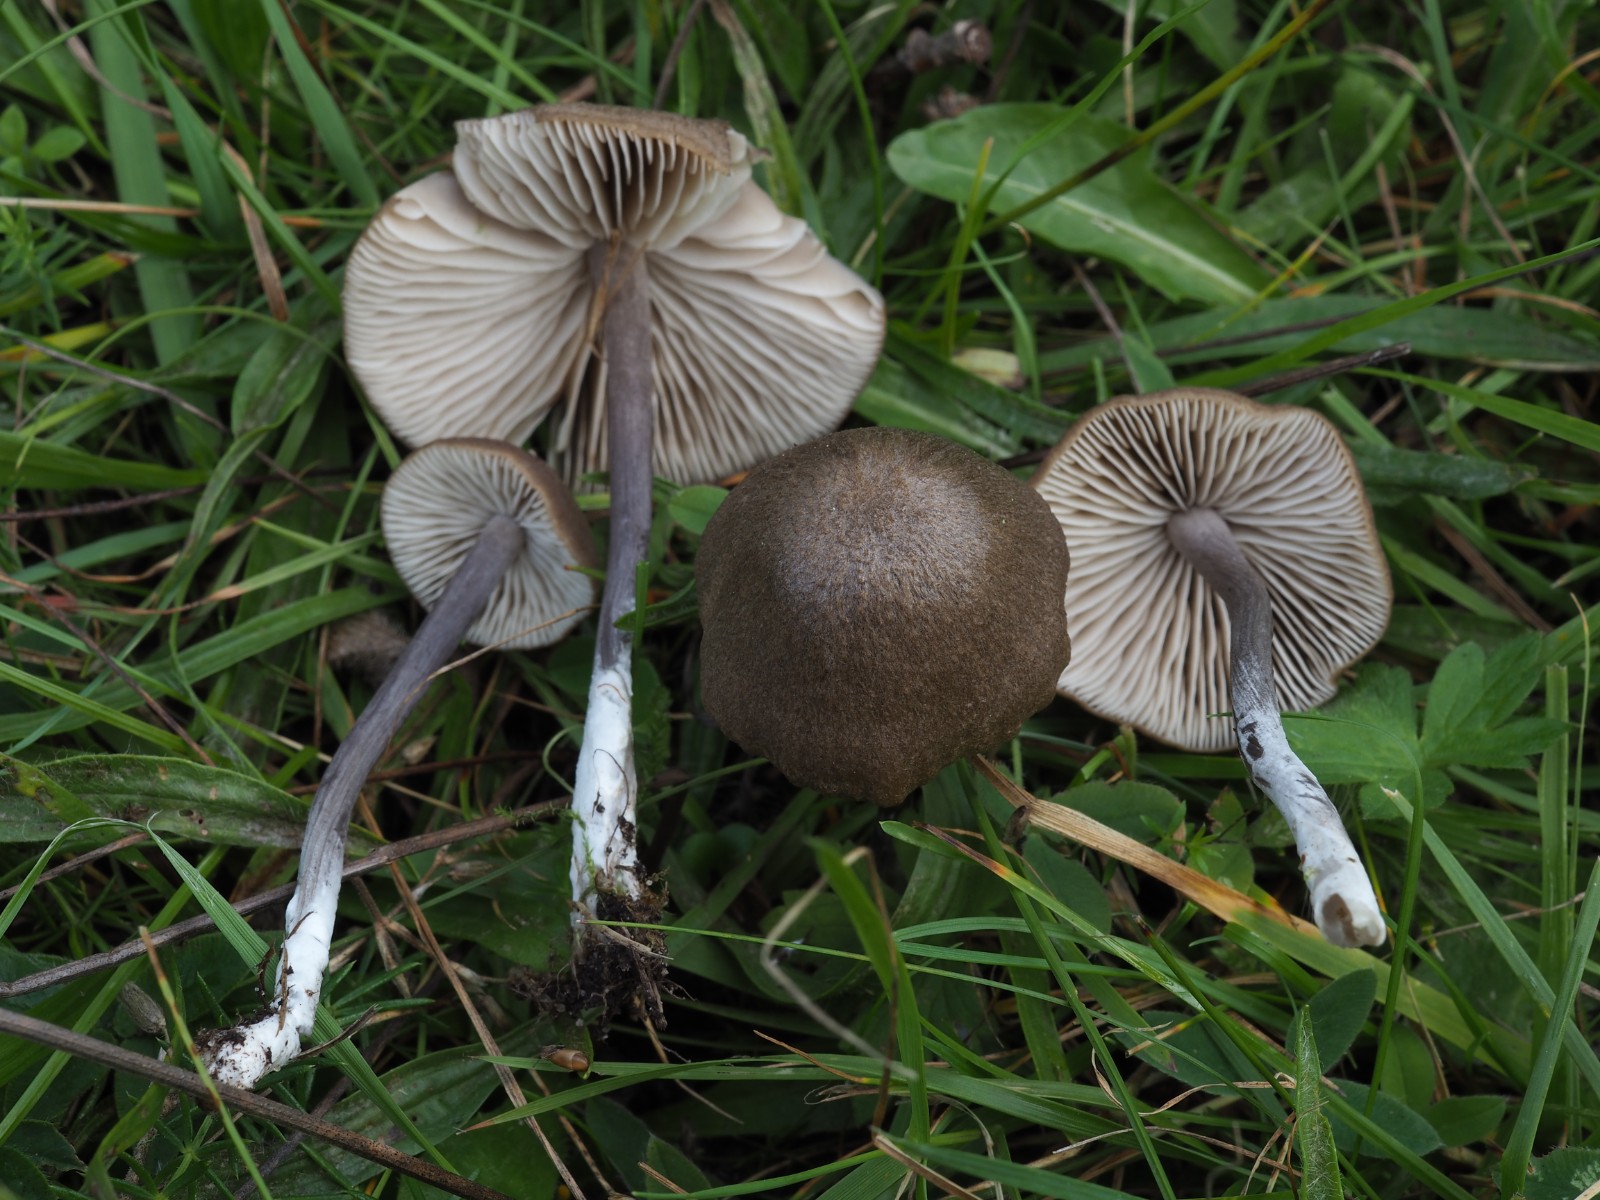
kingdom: Fungi
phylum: Basidiomycota
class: Agaricomycetes
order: Agaricales
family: Entolomataceae
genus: Entoloma
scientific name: Entoloma griseocyaneum
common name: gråblå rødblad
